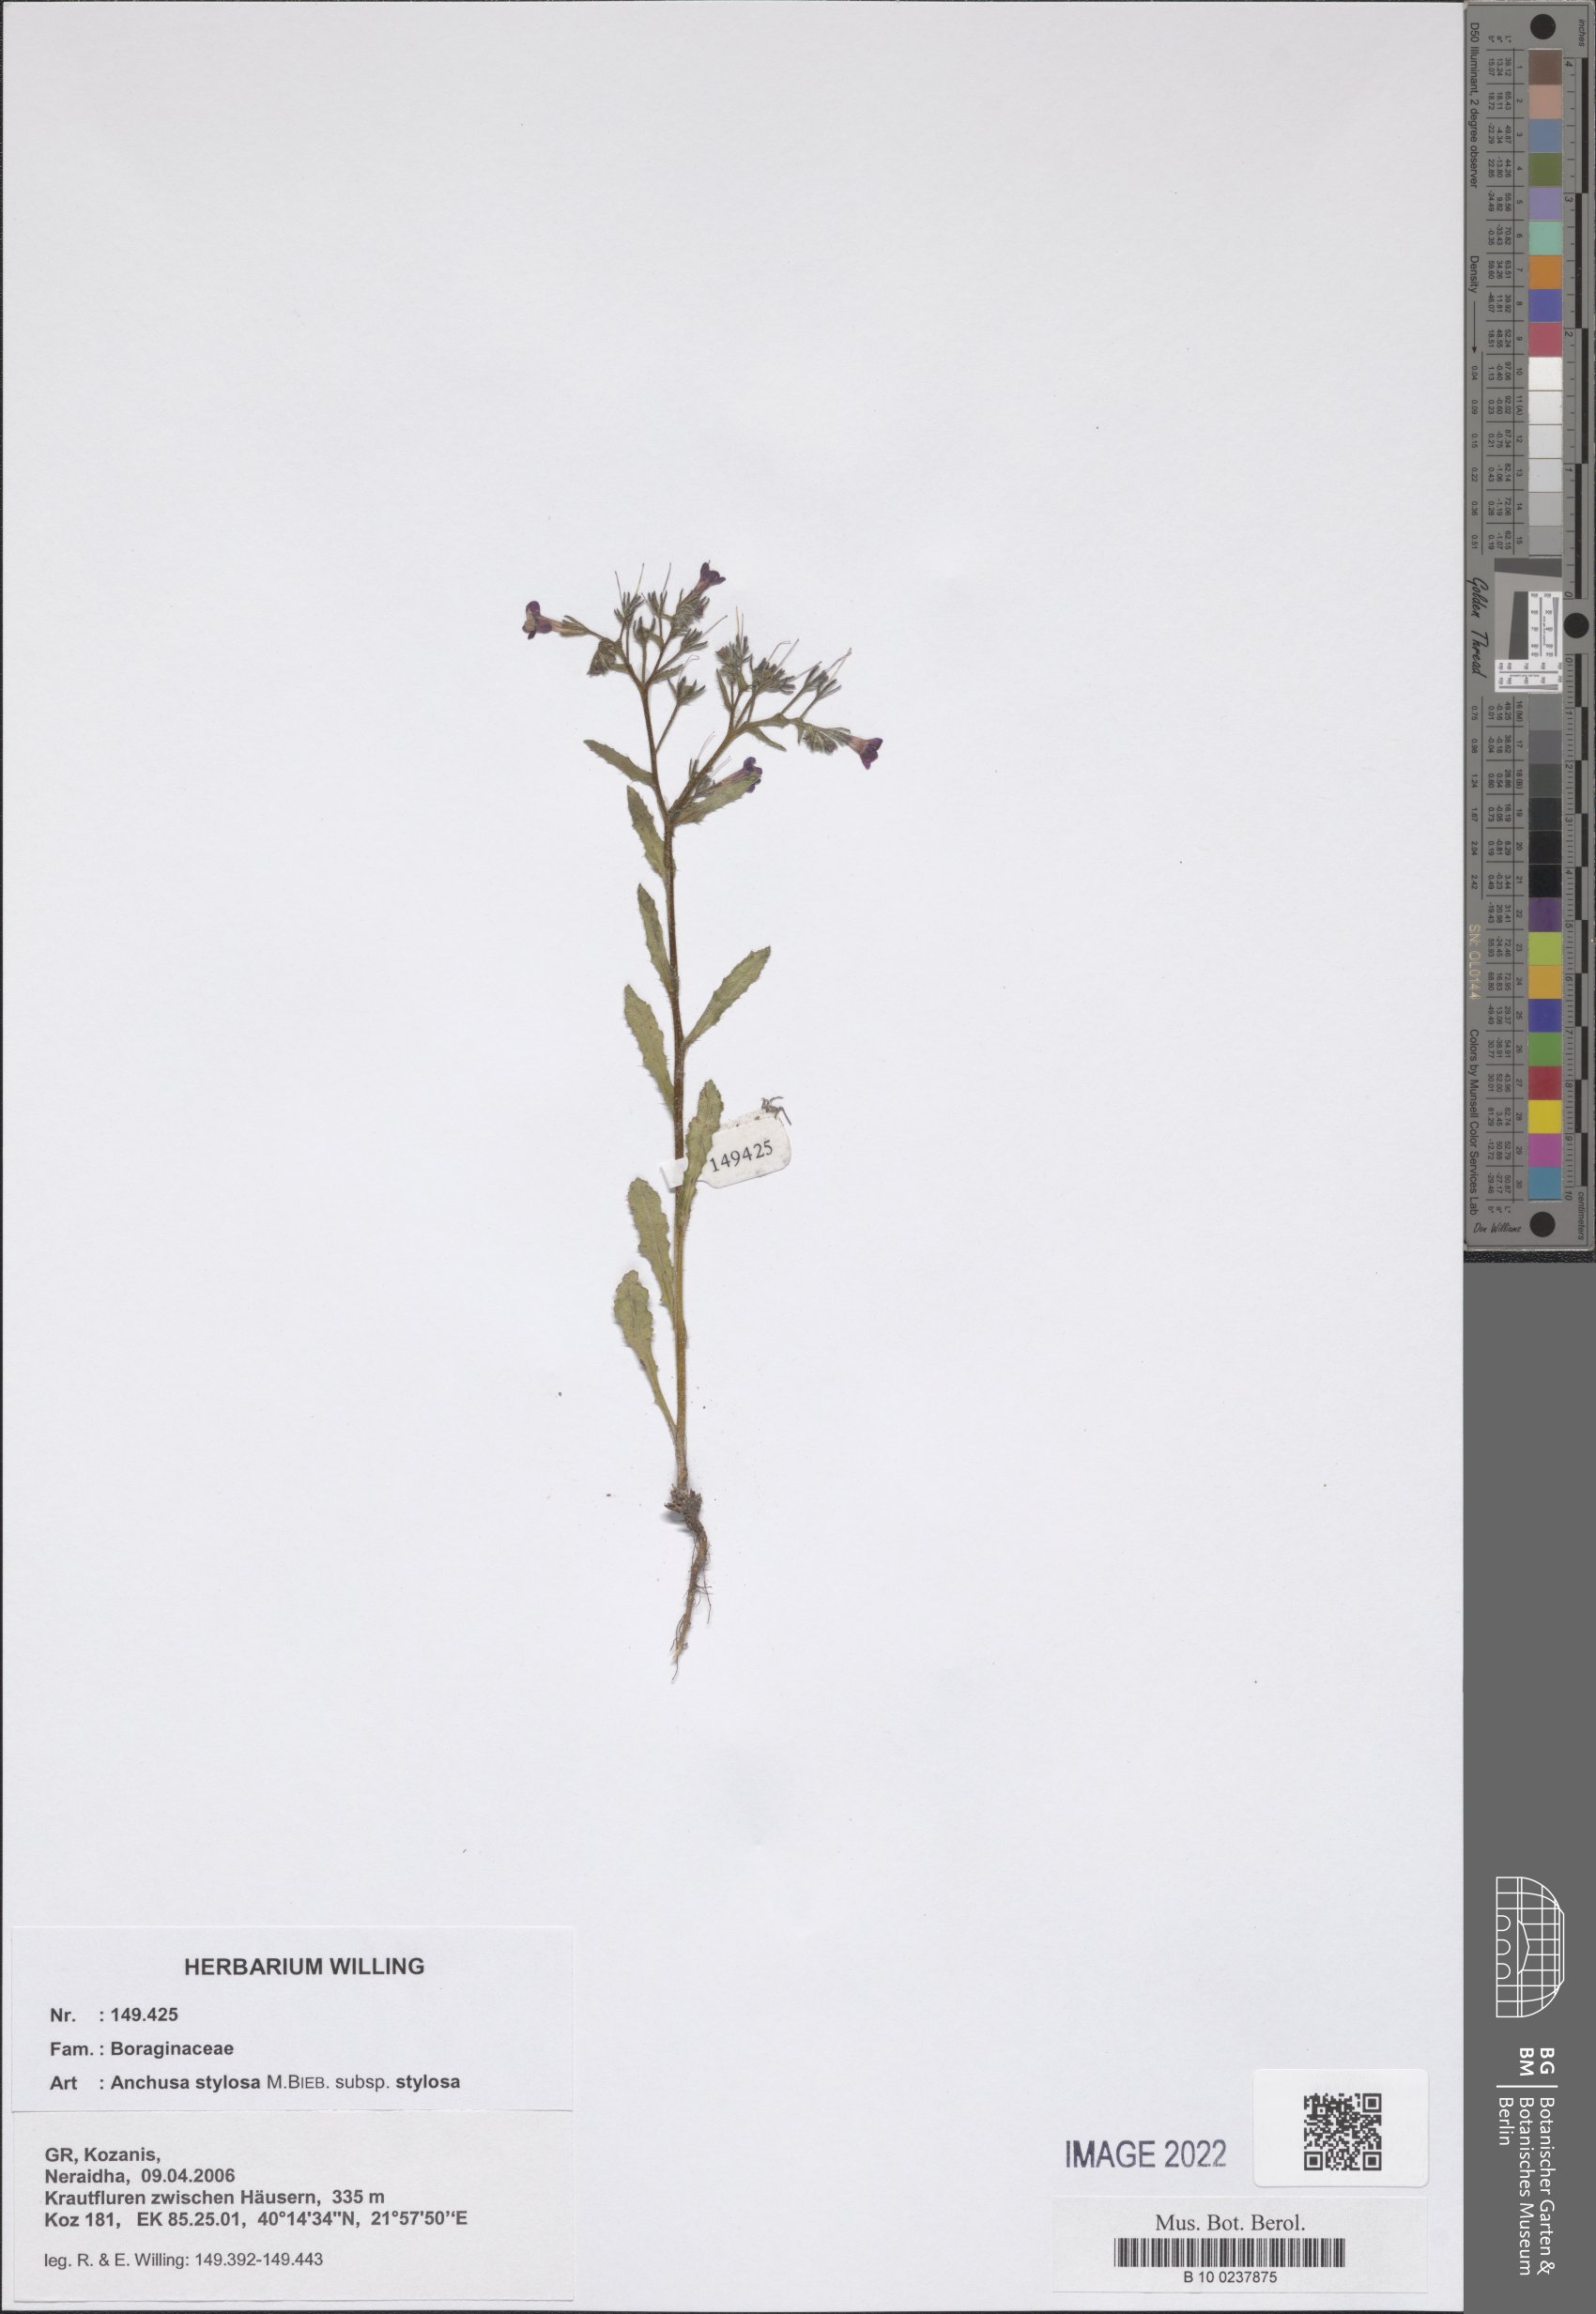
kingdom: Plantae
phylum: Tracheophyta
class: Magnoliopsida
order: Boraginales
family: Boraginaceae
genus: Anchusa
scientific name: Anchusa stylosa
